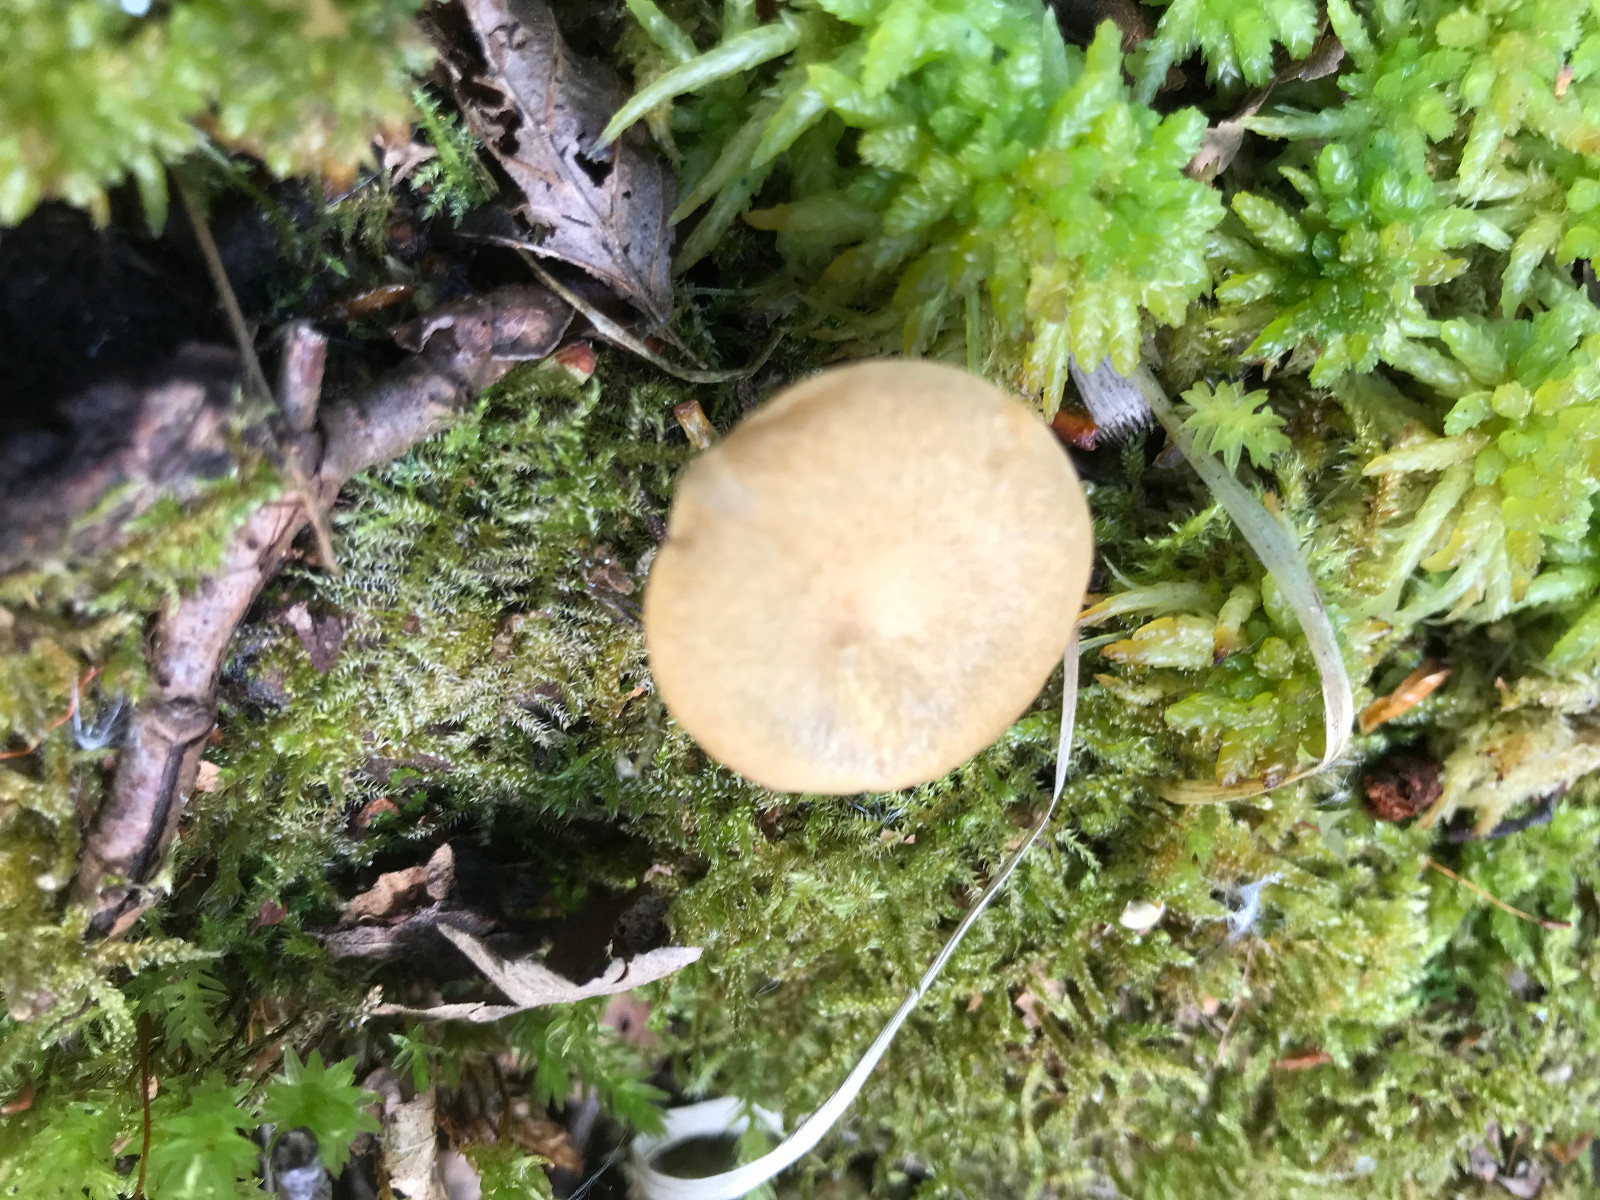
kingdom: Fungi
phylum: Basidiomycota
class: Agaricomycetes
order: Polyporales
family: Polyporaceae
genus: Cerioporus
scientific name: Cerioporus varius
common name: foranderlig stilkporesvamp
